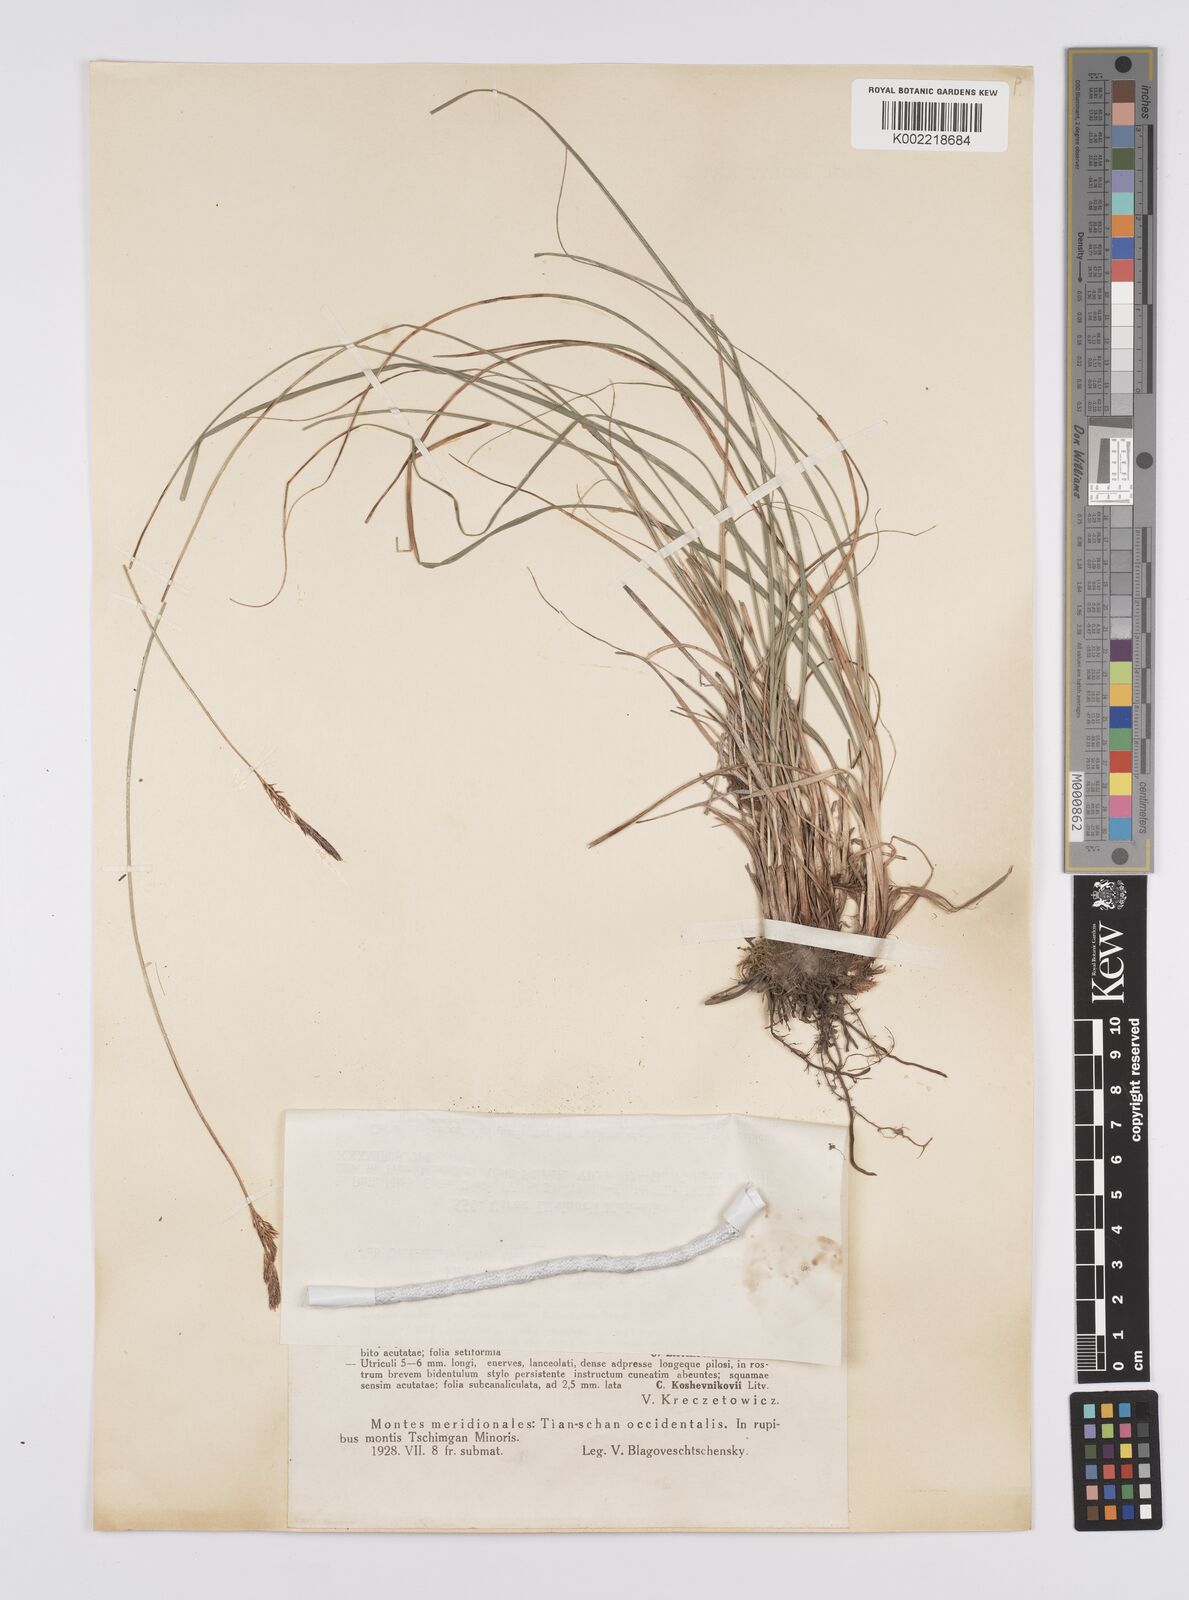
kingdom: Plantae
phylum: Tracheophyta
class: Liliopsida
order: Poales
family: Cyperaceae
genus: Carex
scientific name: Carex litvinovii
